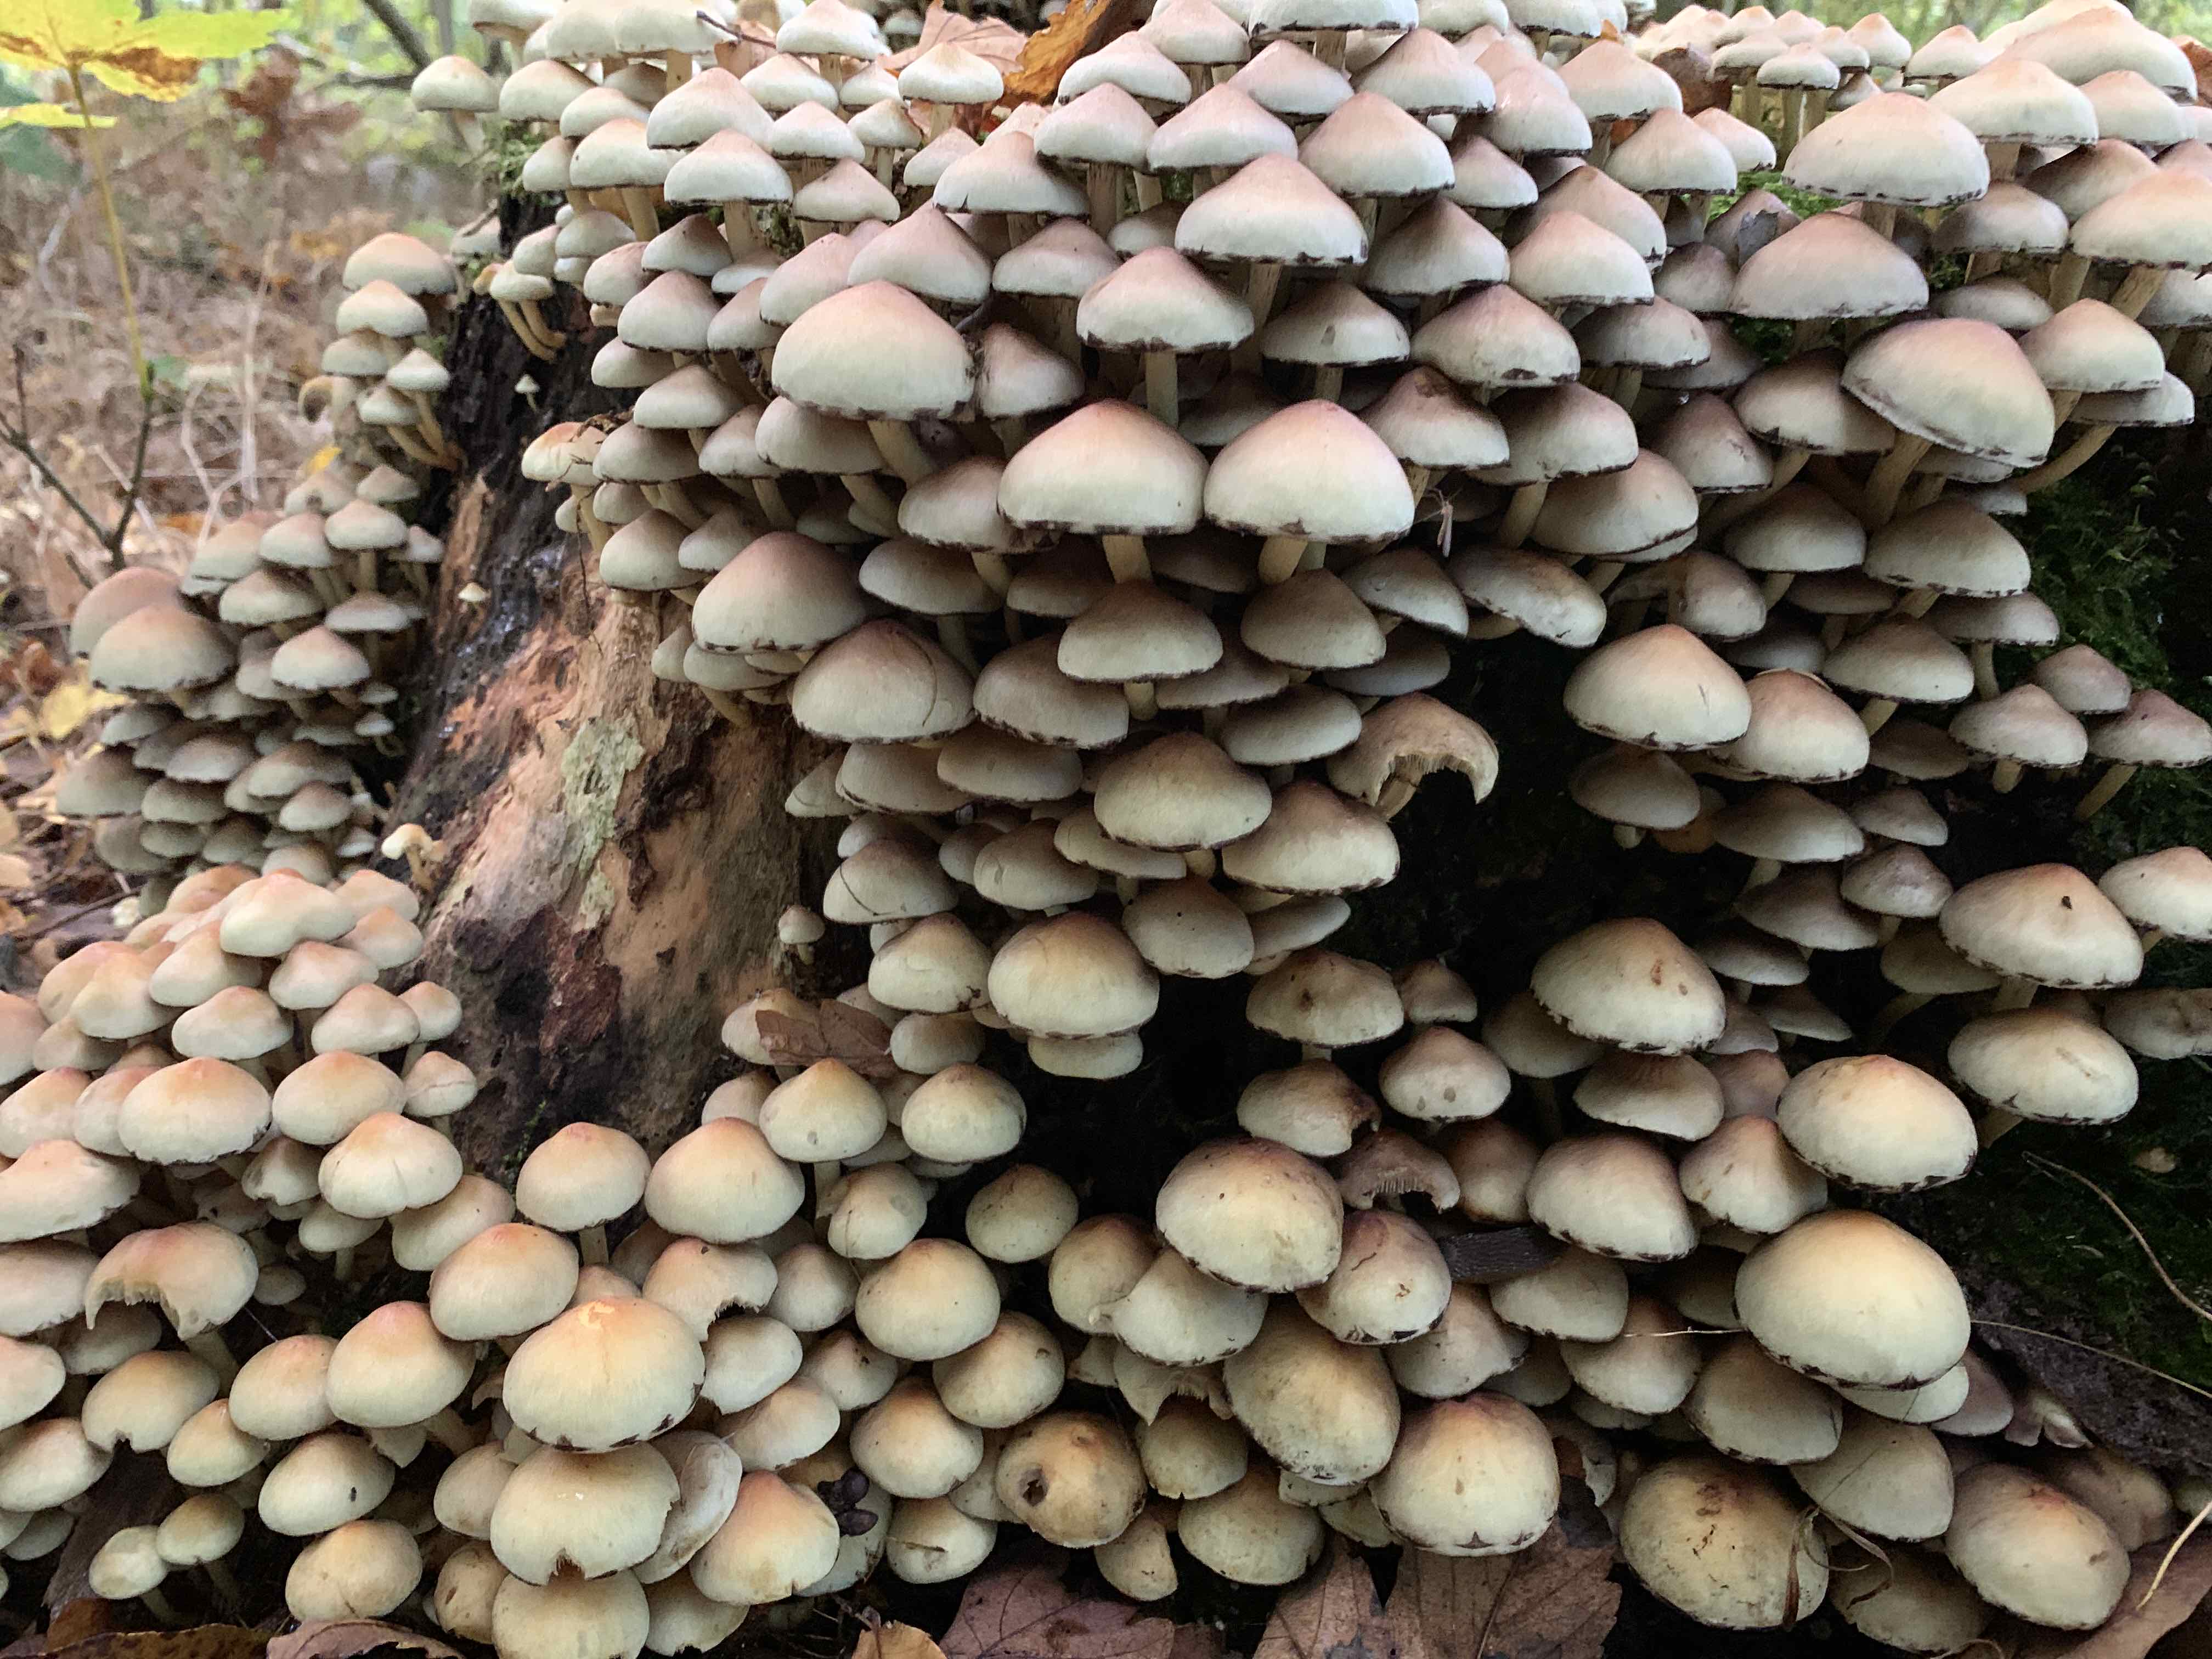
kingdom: Fungi
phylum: Basidiomycota
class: Agaricomycetes
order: Agaricales
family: Strophariaceae
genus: Hypholoma
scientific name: Hypholoma fasciculare
